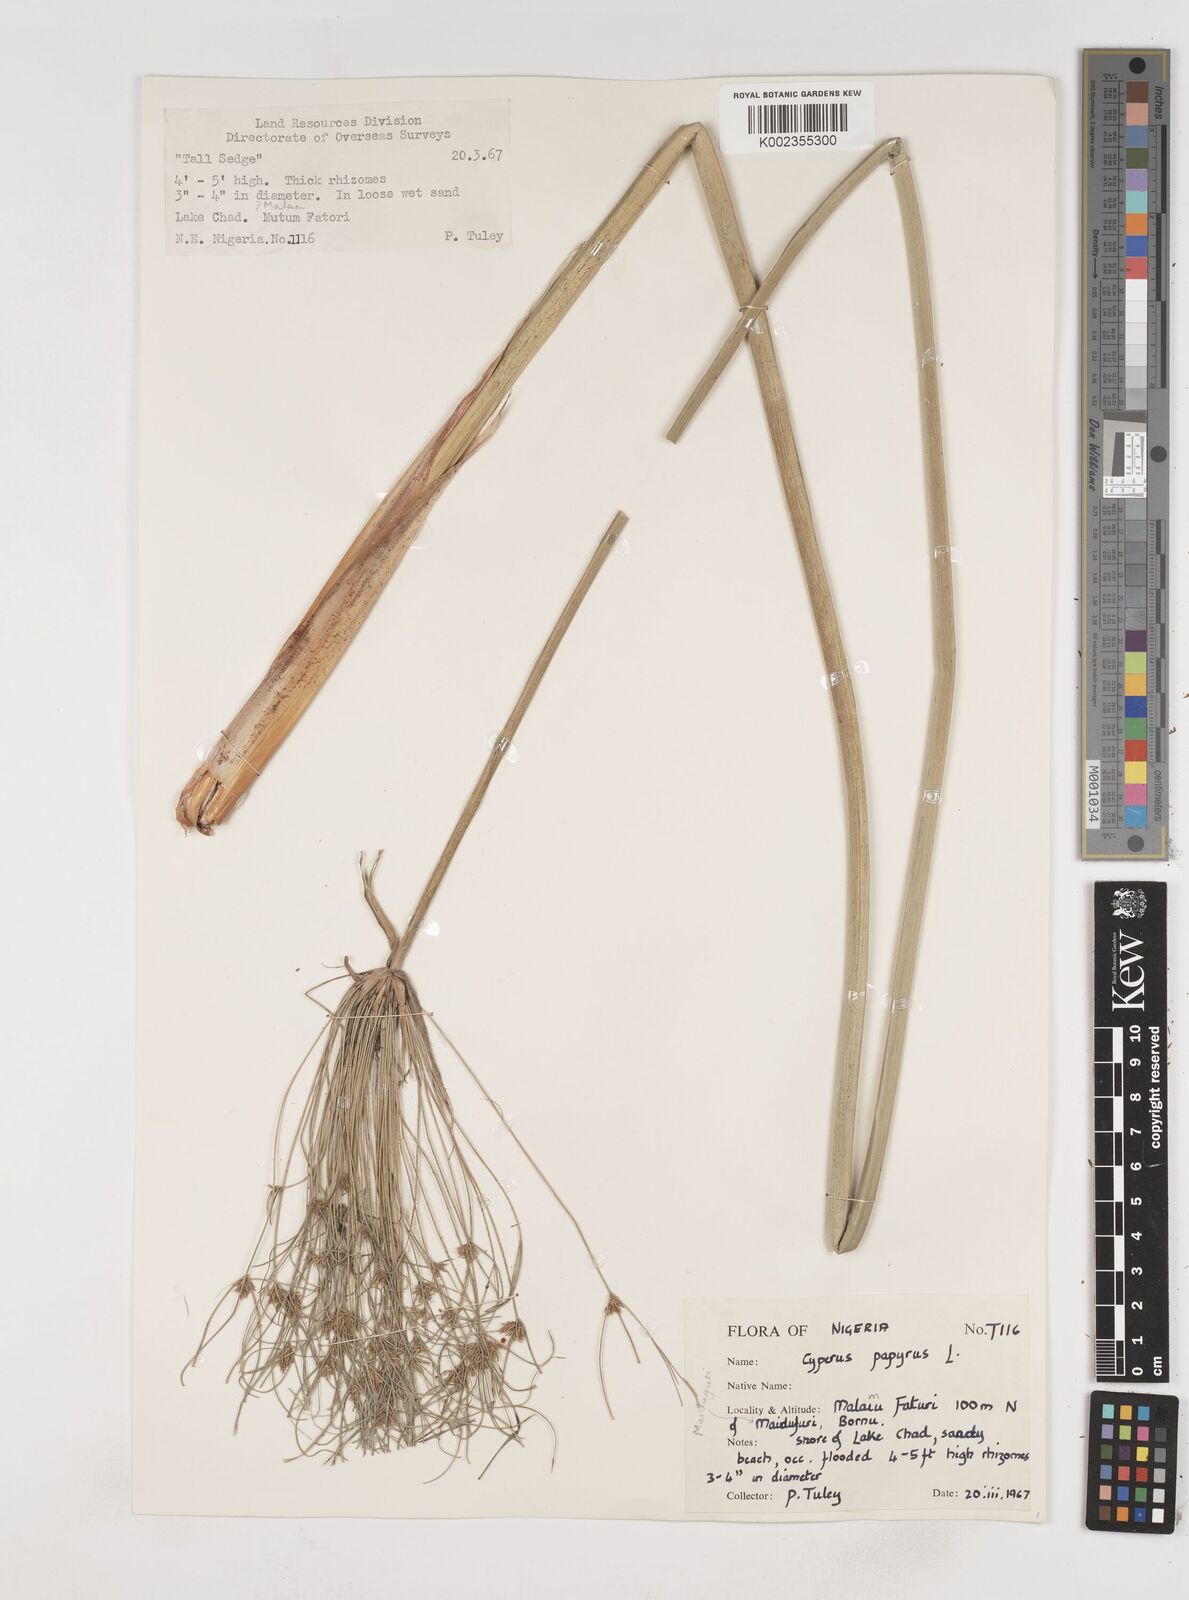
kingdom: Plantae
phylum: Tracheophyta
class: Liliopsida
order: Poales
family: Cyperaceae
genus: Cyperus
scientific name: Cyperus papyrus
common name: Papyrus
